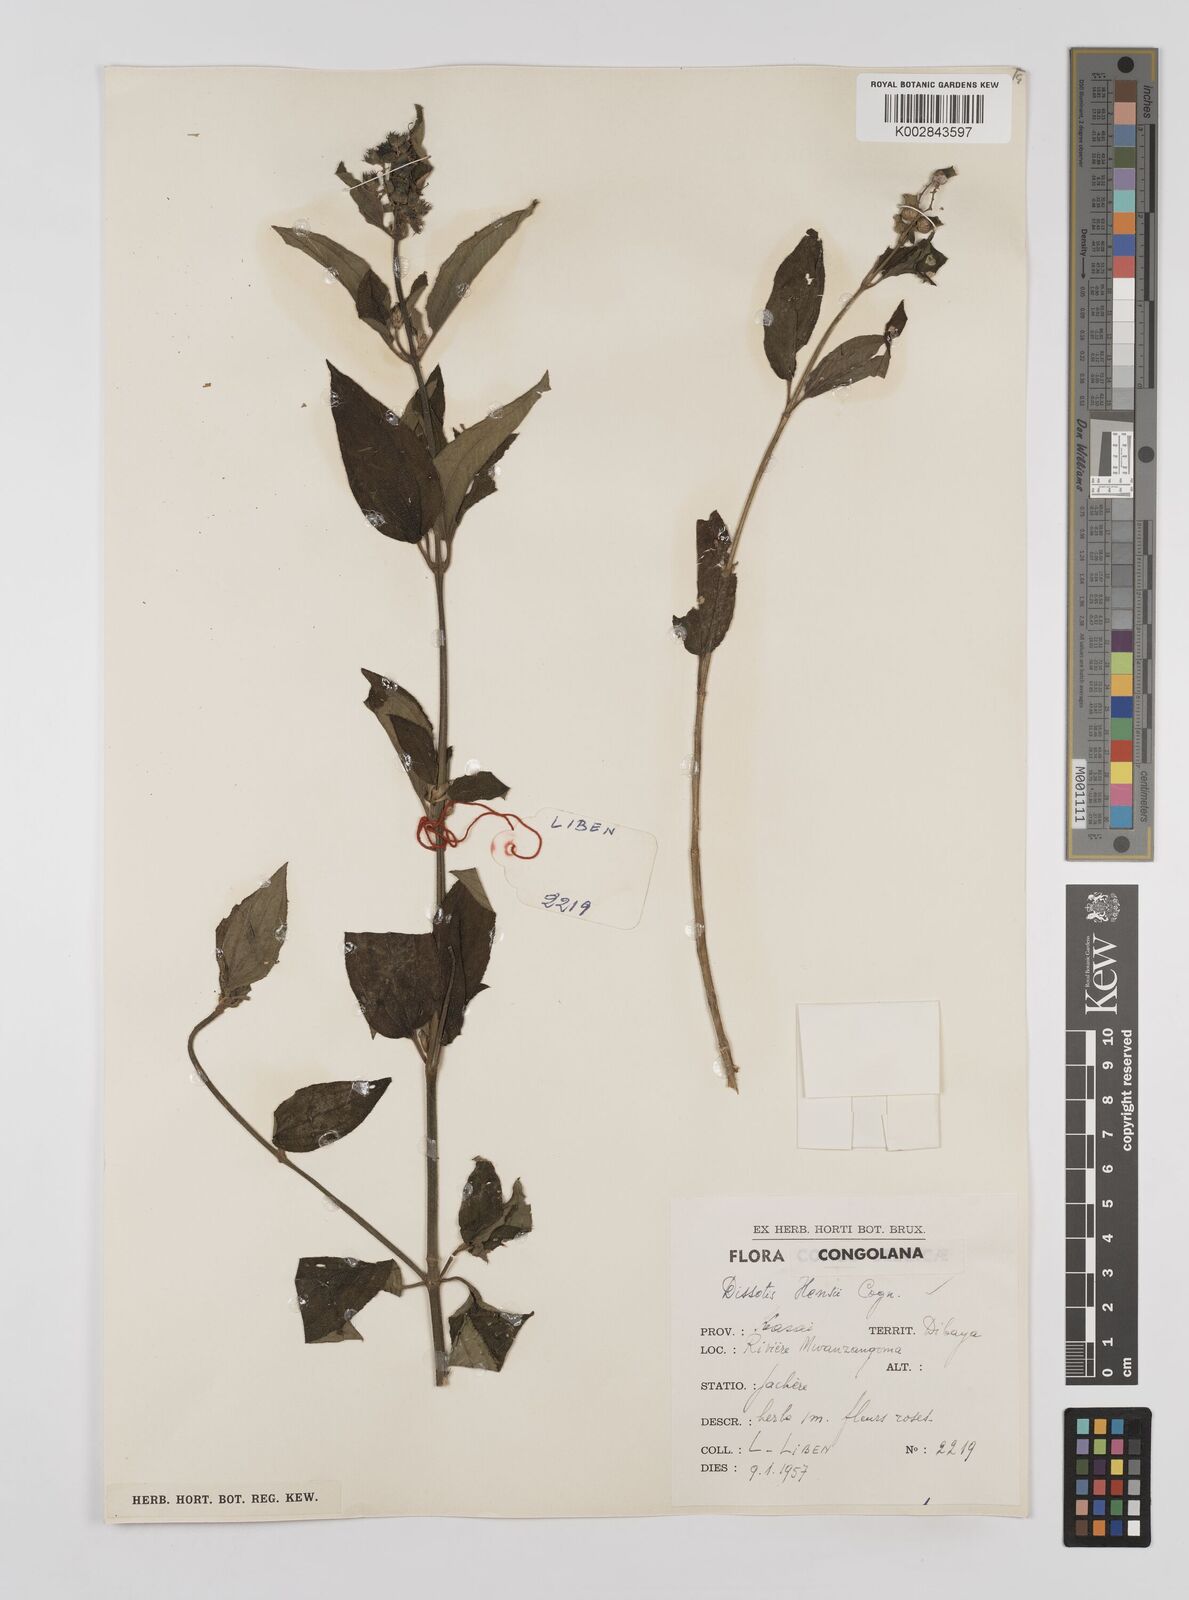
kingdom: Plantae
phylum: Tracheophyta
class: Magnoliopsida
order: Myrtales
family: Melastomataceae
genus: Dupineta
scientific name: Dupineta hensii
